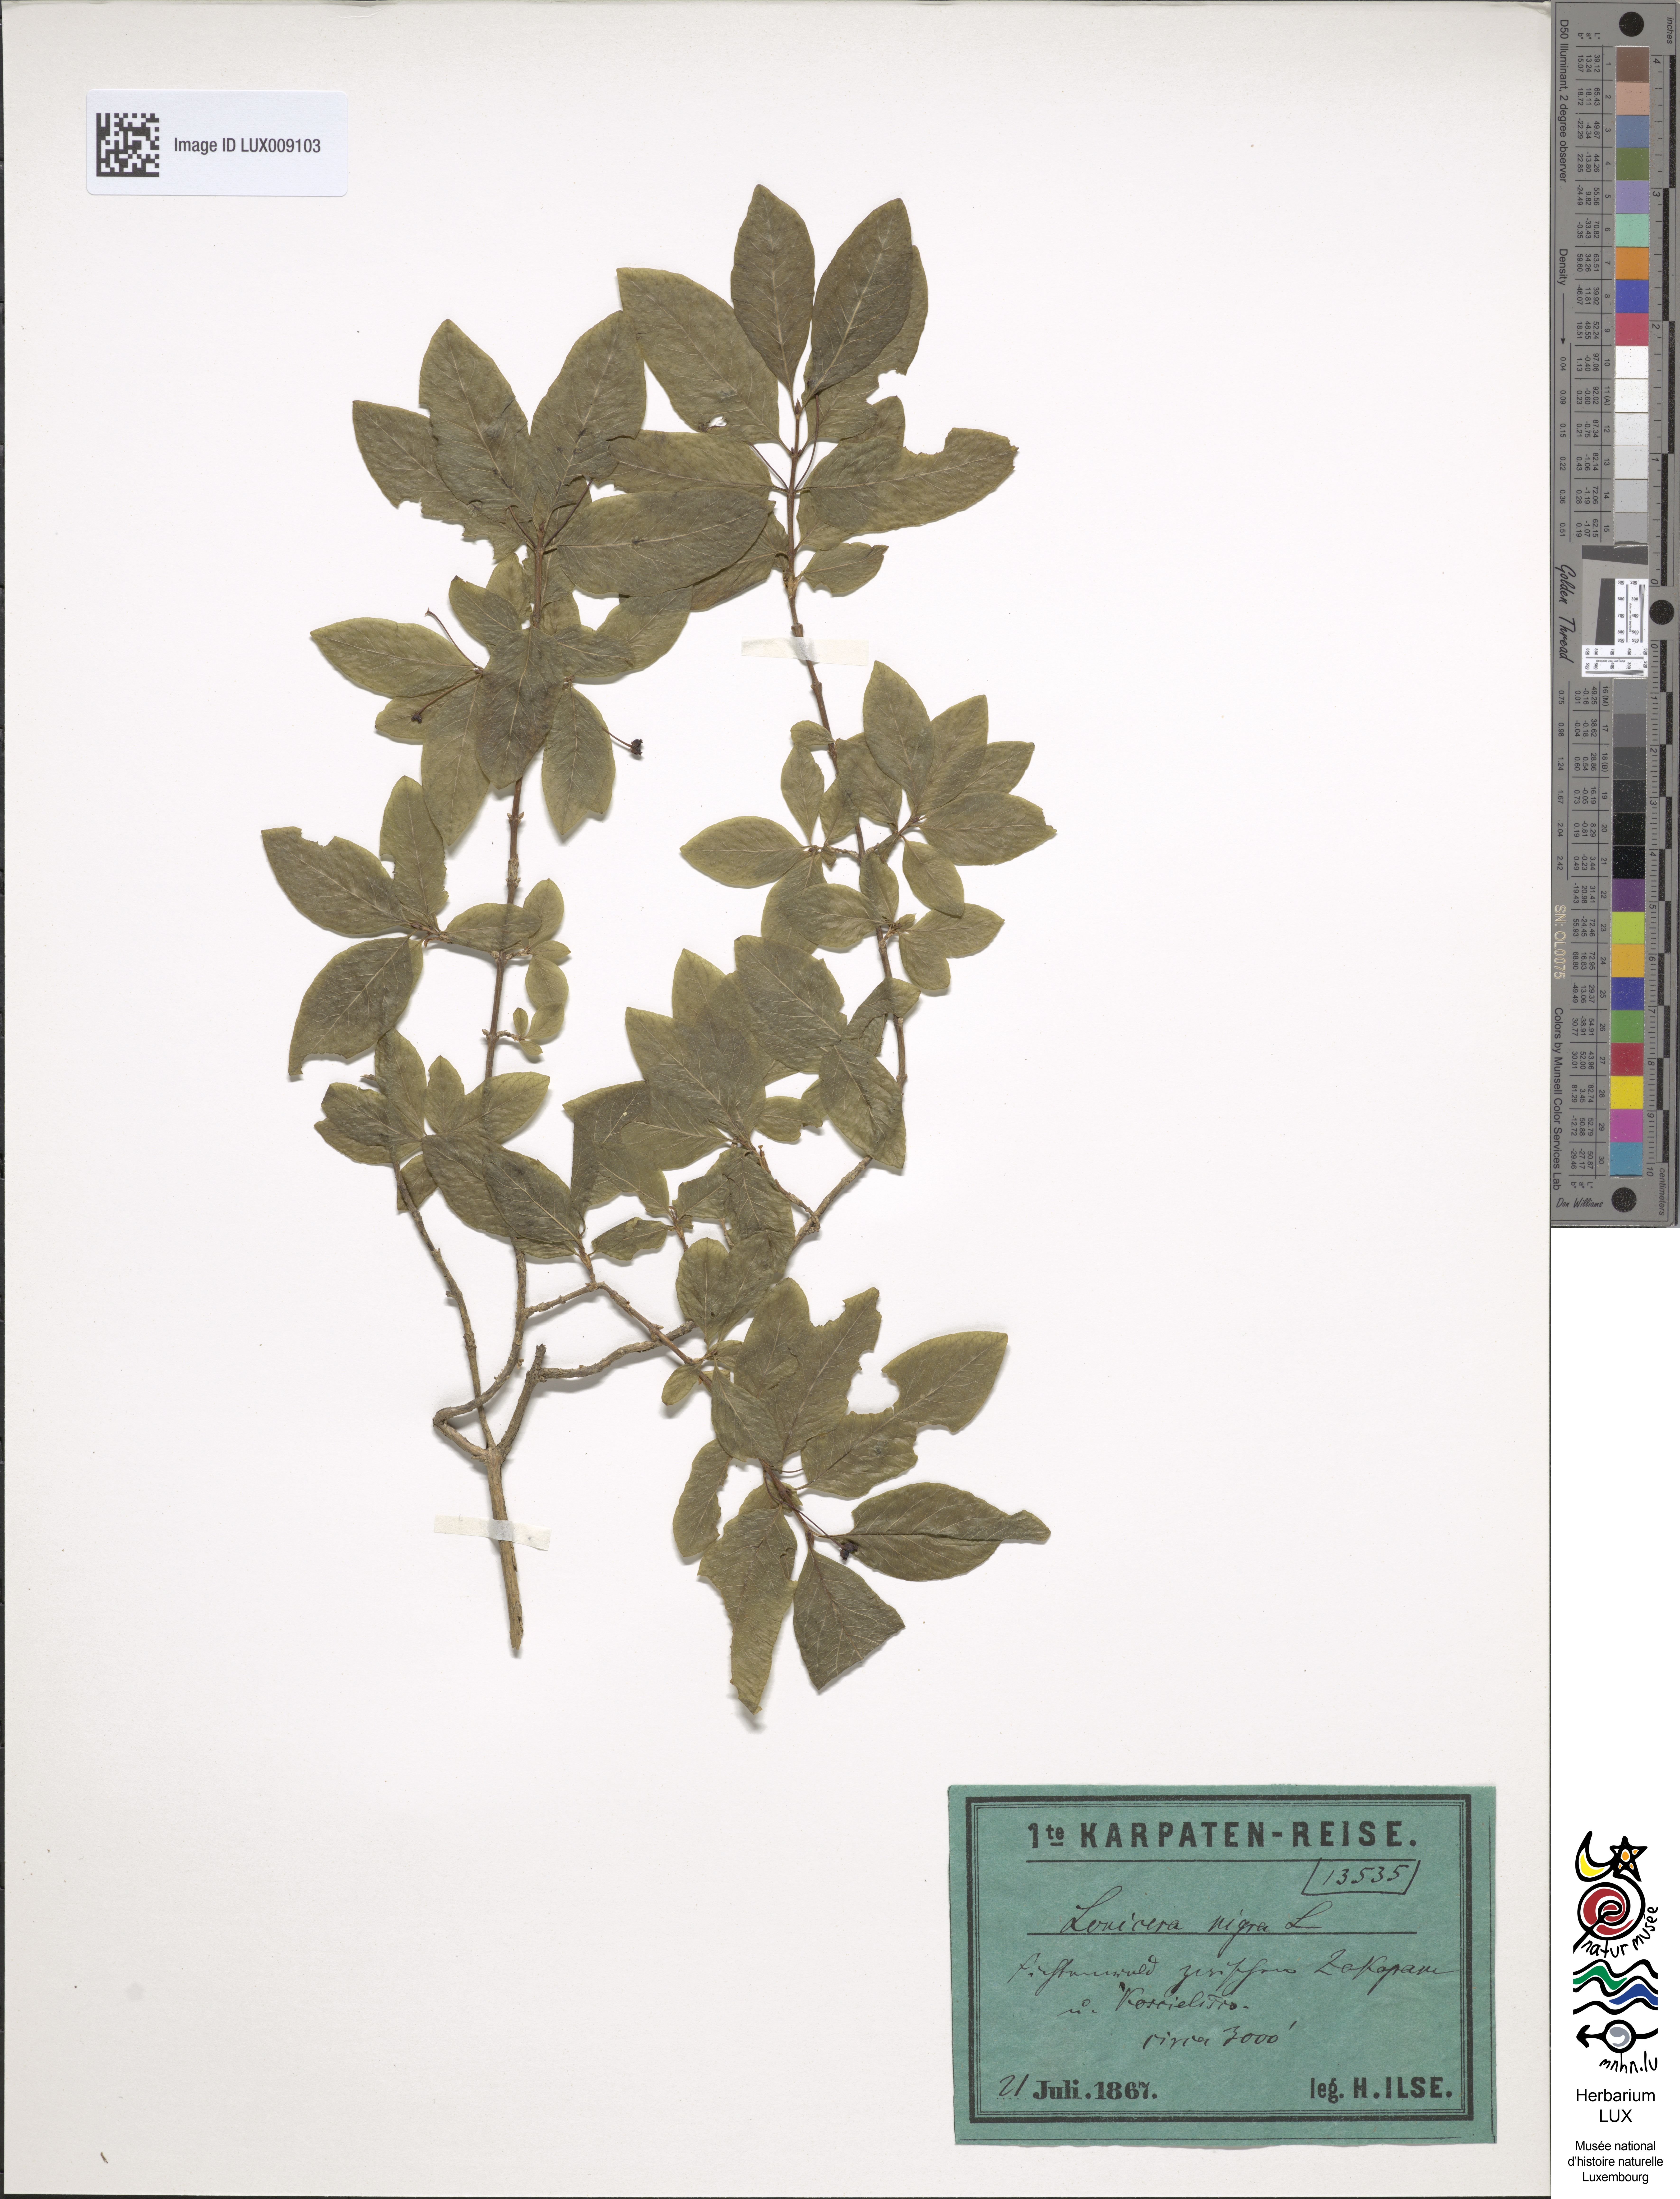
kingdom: Plantae
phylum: Tracheophyta
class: Magnoliopsida
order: Dipsacales
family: Caprifoliaceae
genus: Lonicera
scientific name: Lonicera nigra
